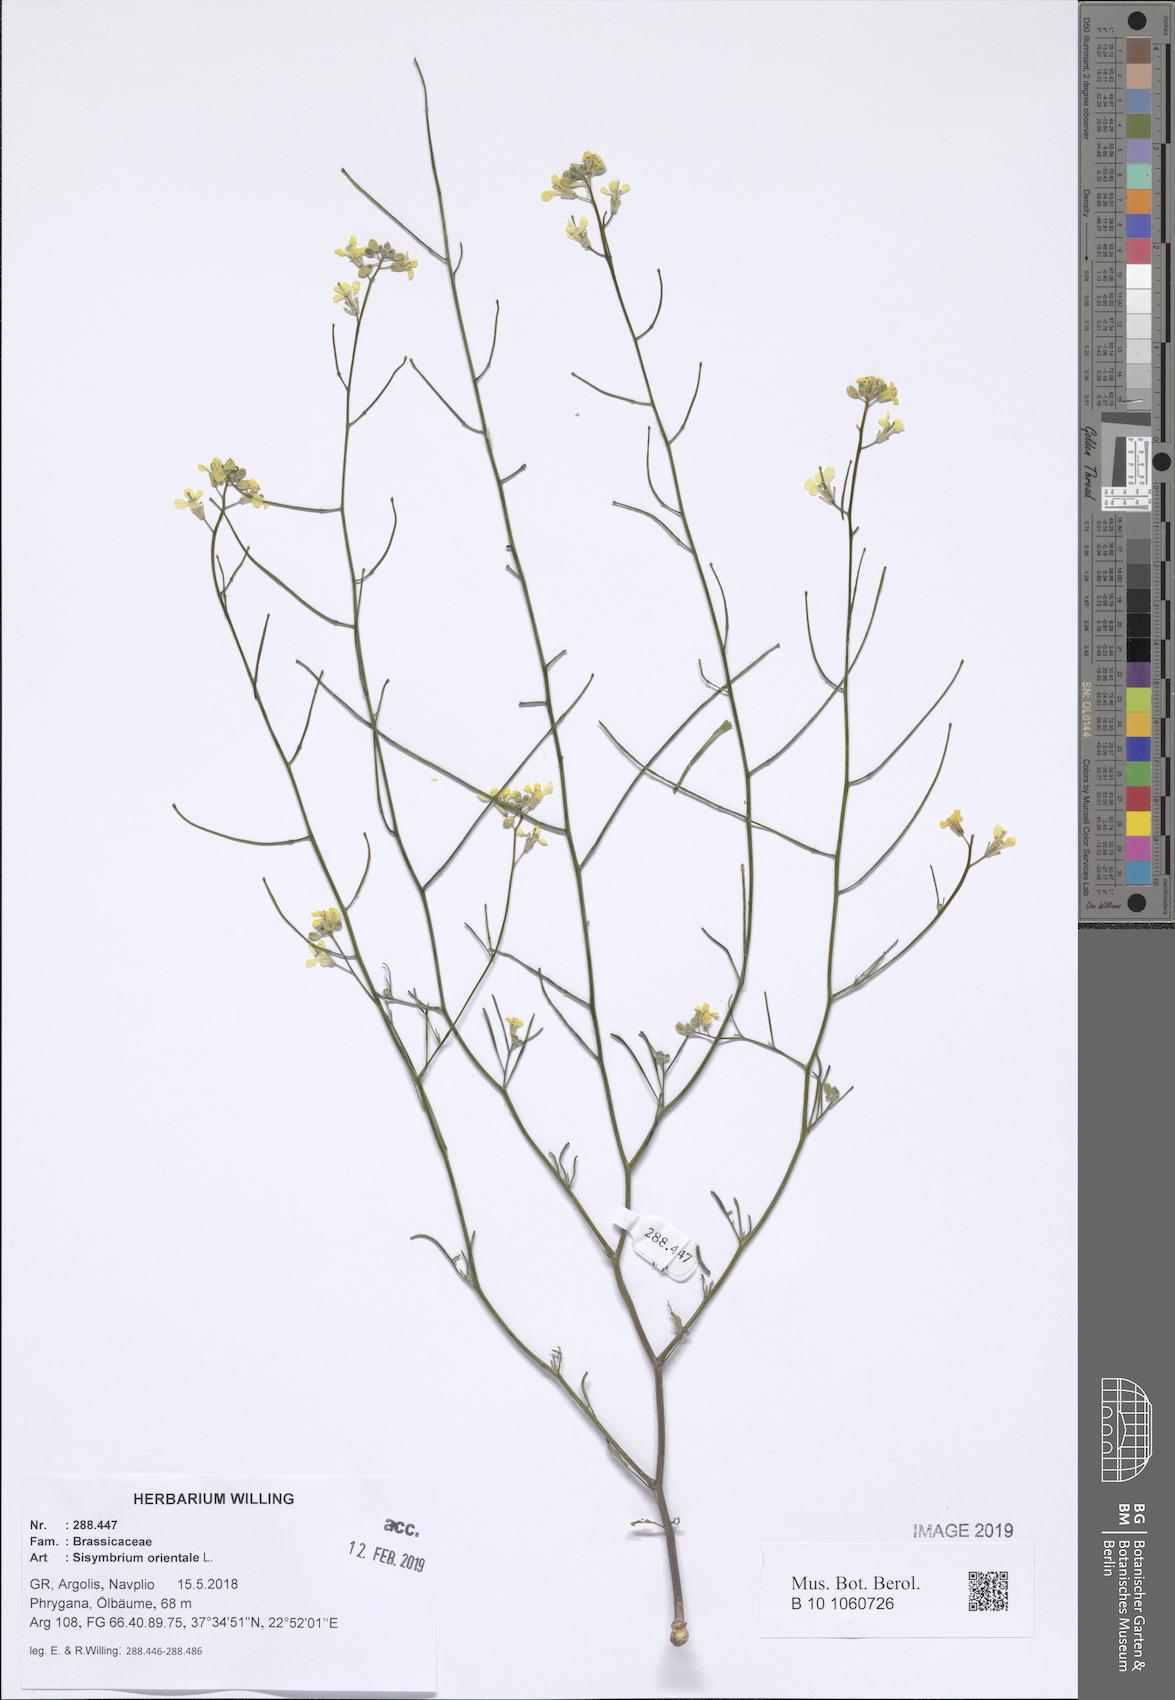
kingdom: Plantae
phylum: Tracheophyta
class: Magnoliopsida
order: Brassicales
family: Brassicaceae
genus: Sisymbrium
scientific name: Sisymbrium orientale
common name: Eastern rocket
